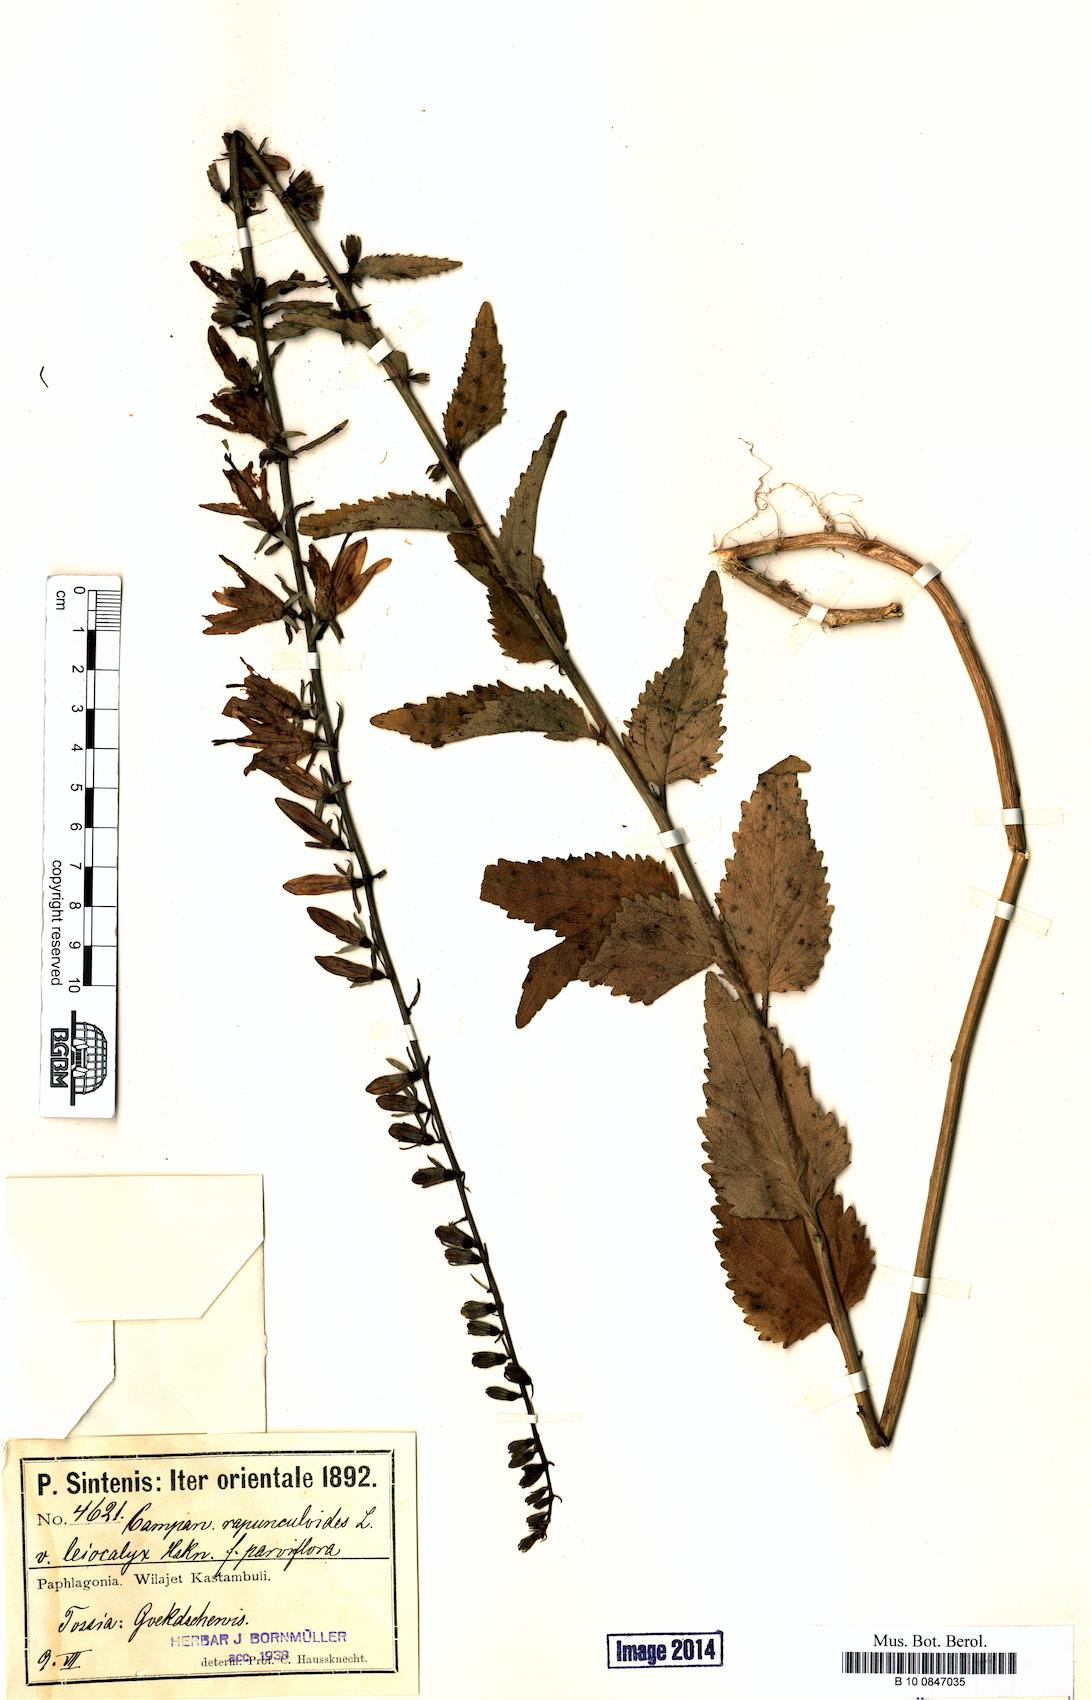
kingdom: Plantae
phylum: Tracheophyta
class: Magnoliopsida
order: Asterales
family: Campanulaceae
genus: Campanula
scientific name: Campanula rapunculoides
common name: Creeping bellflower
